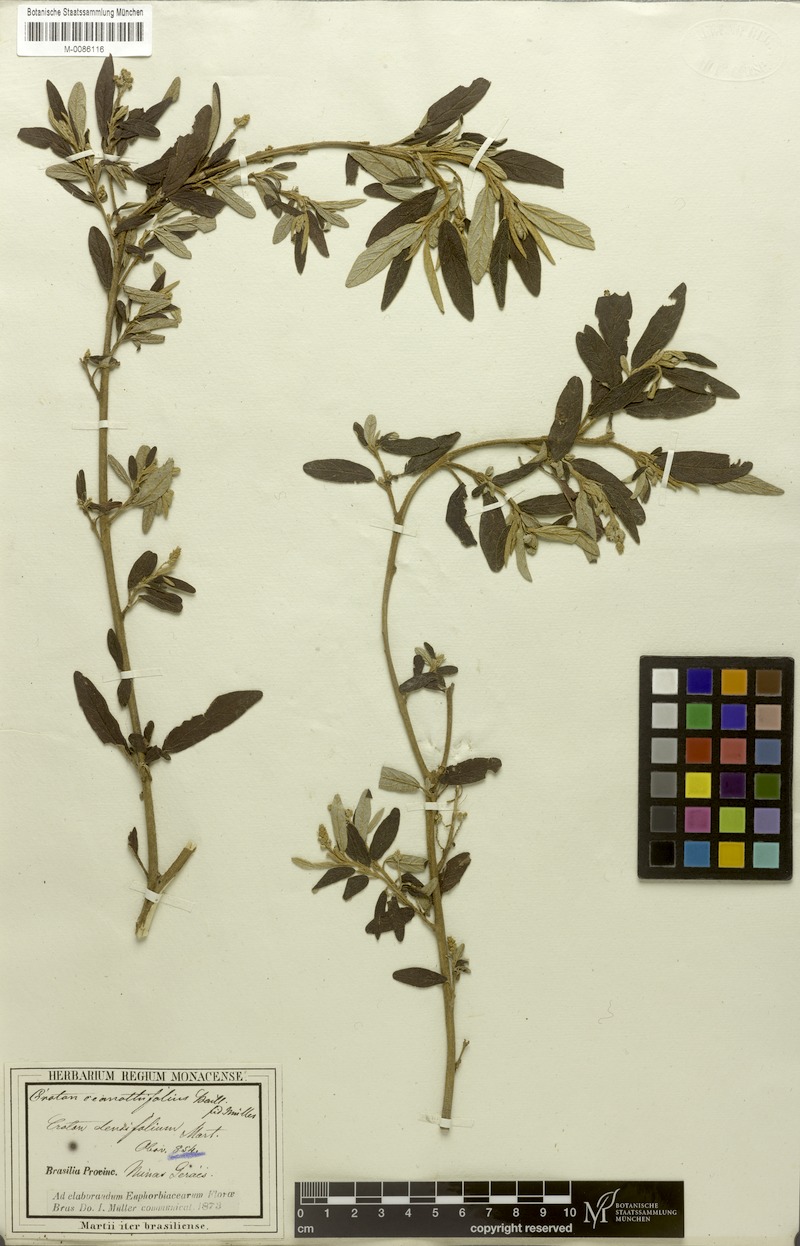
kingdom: Plantae
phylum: Tracheophyta
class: Magnoliopsida
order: Malpighiales
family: Euphorbiaceae
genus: Croton
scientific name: Croton ceanothifolius
